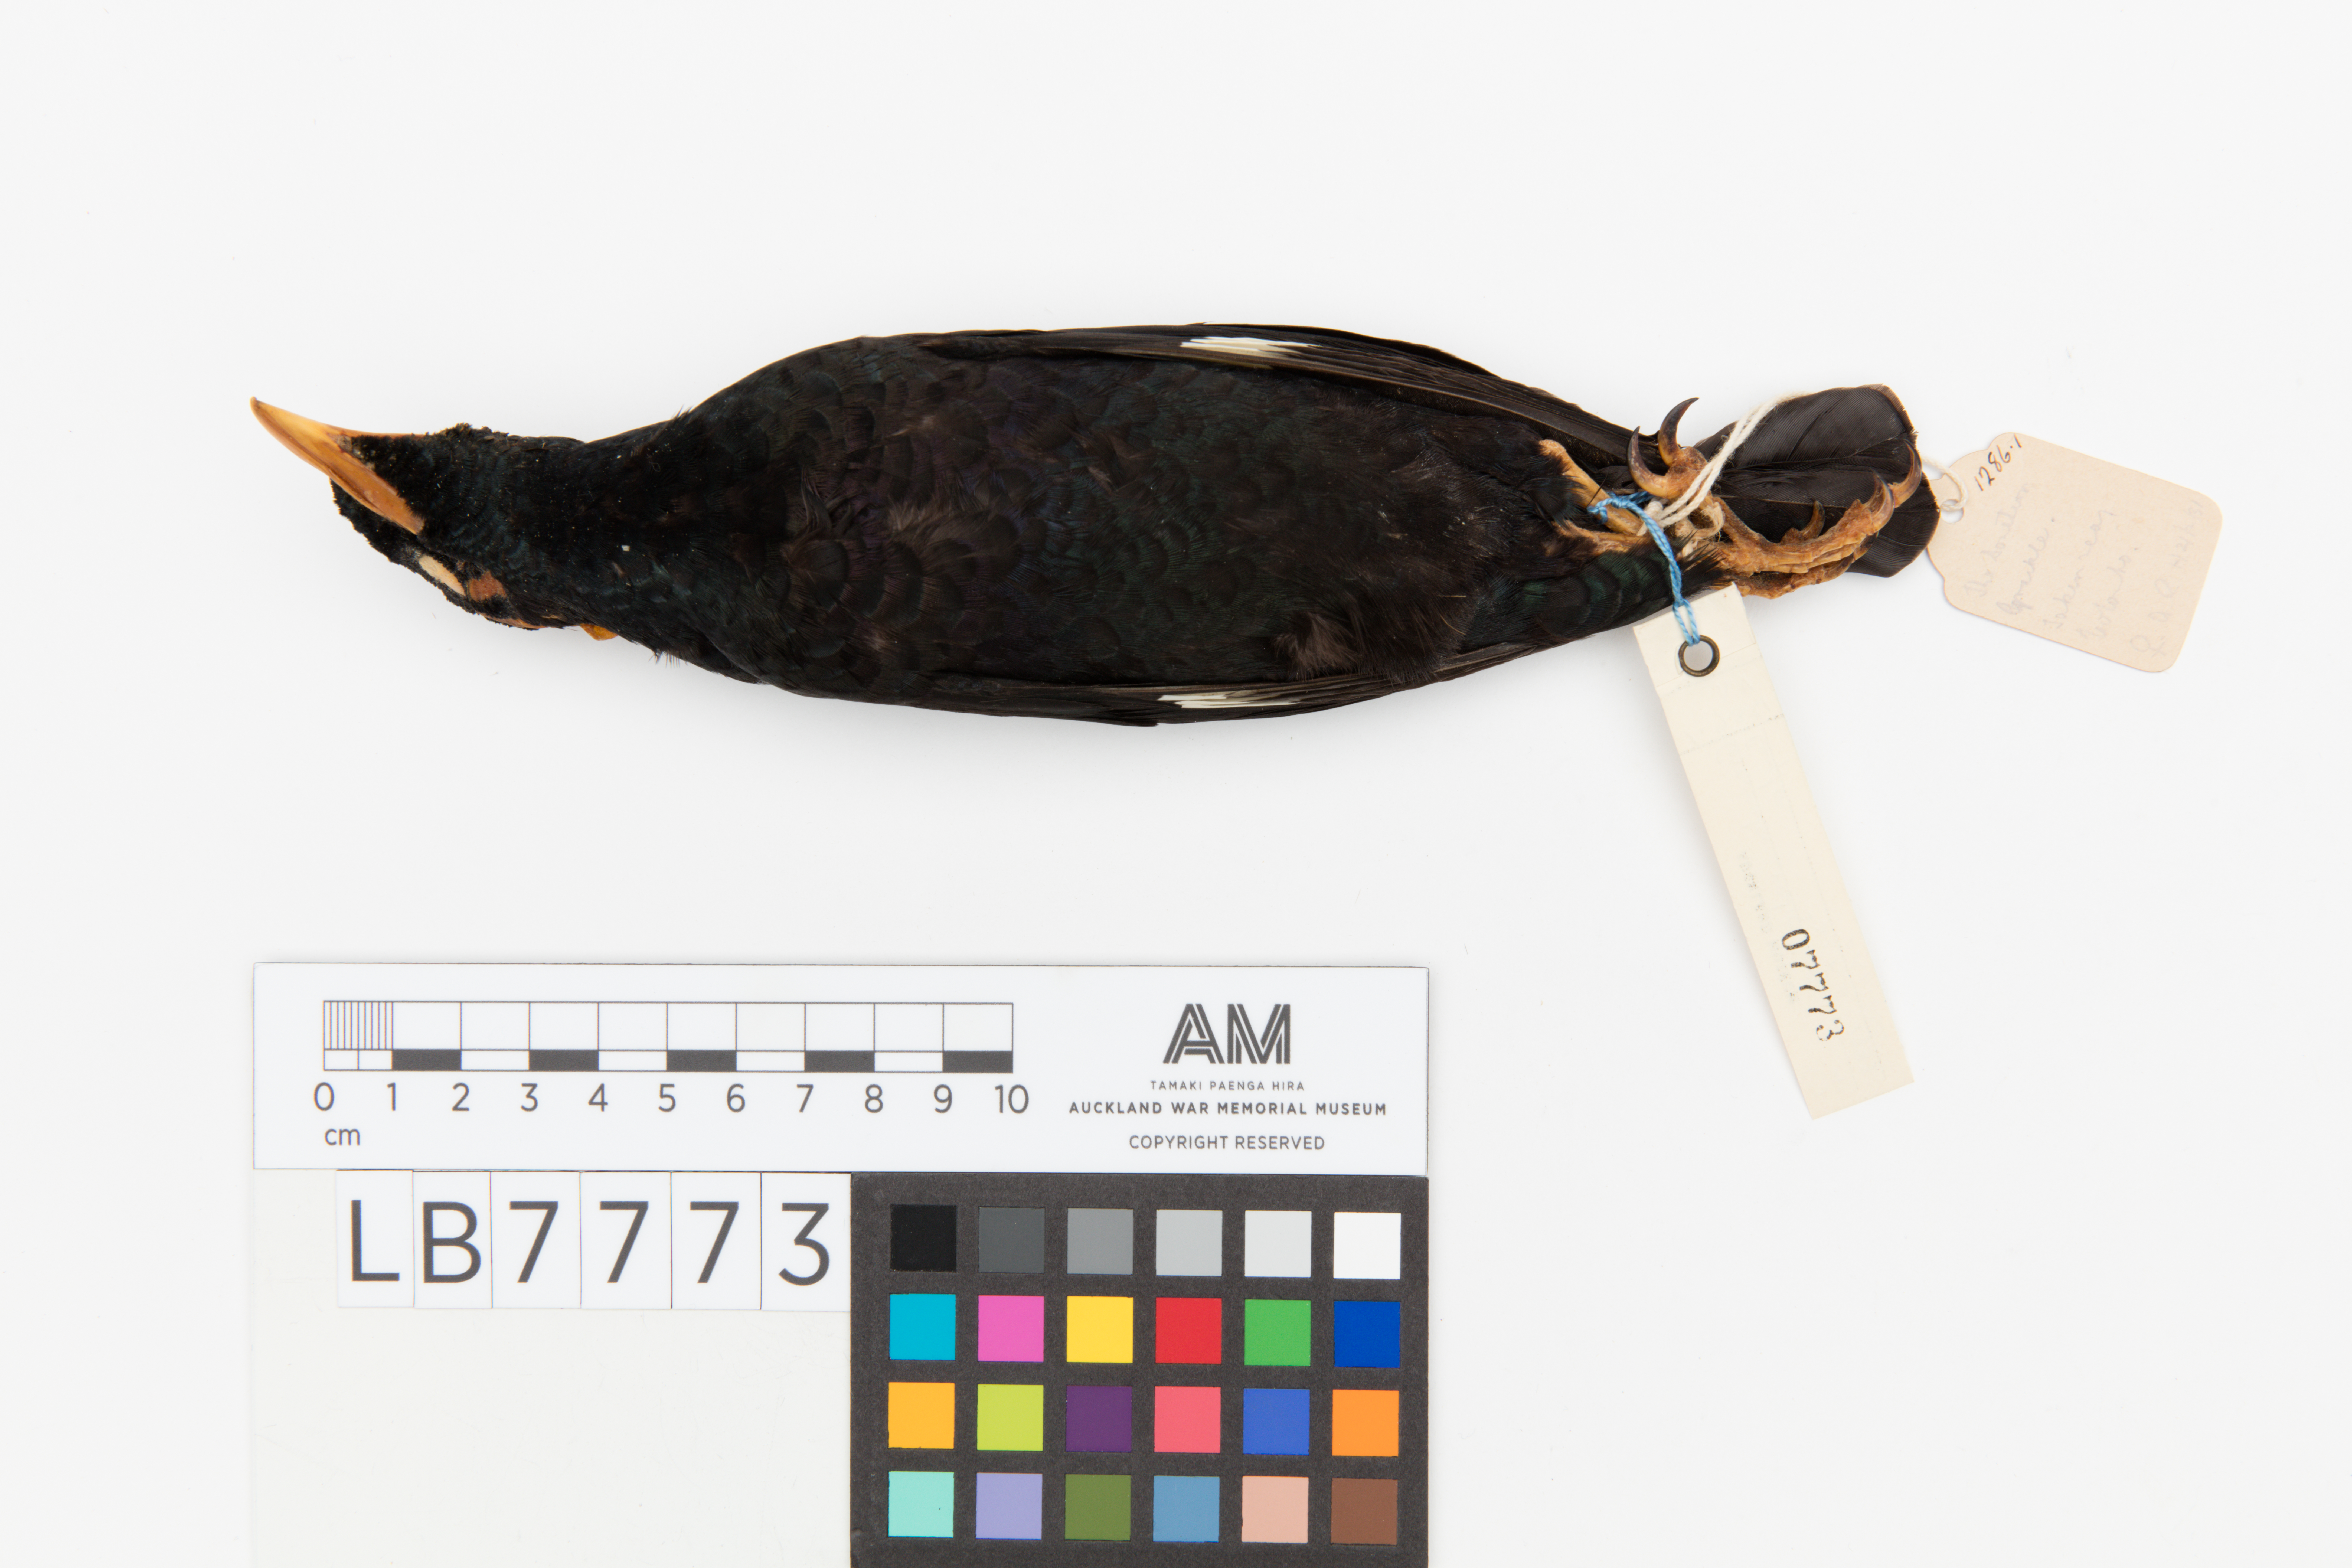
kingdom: Animalia
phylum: Chordata
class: Aves
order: Passeriformes
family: Sturnidae
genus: Gracula
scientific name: Gracula religiosa
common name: Common hill myna
